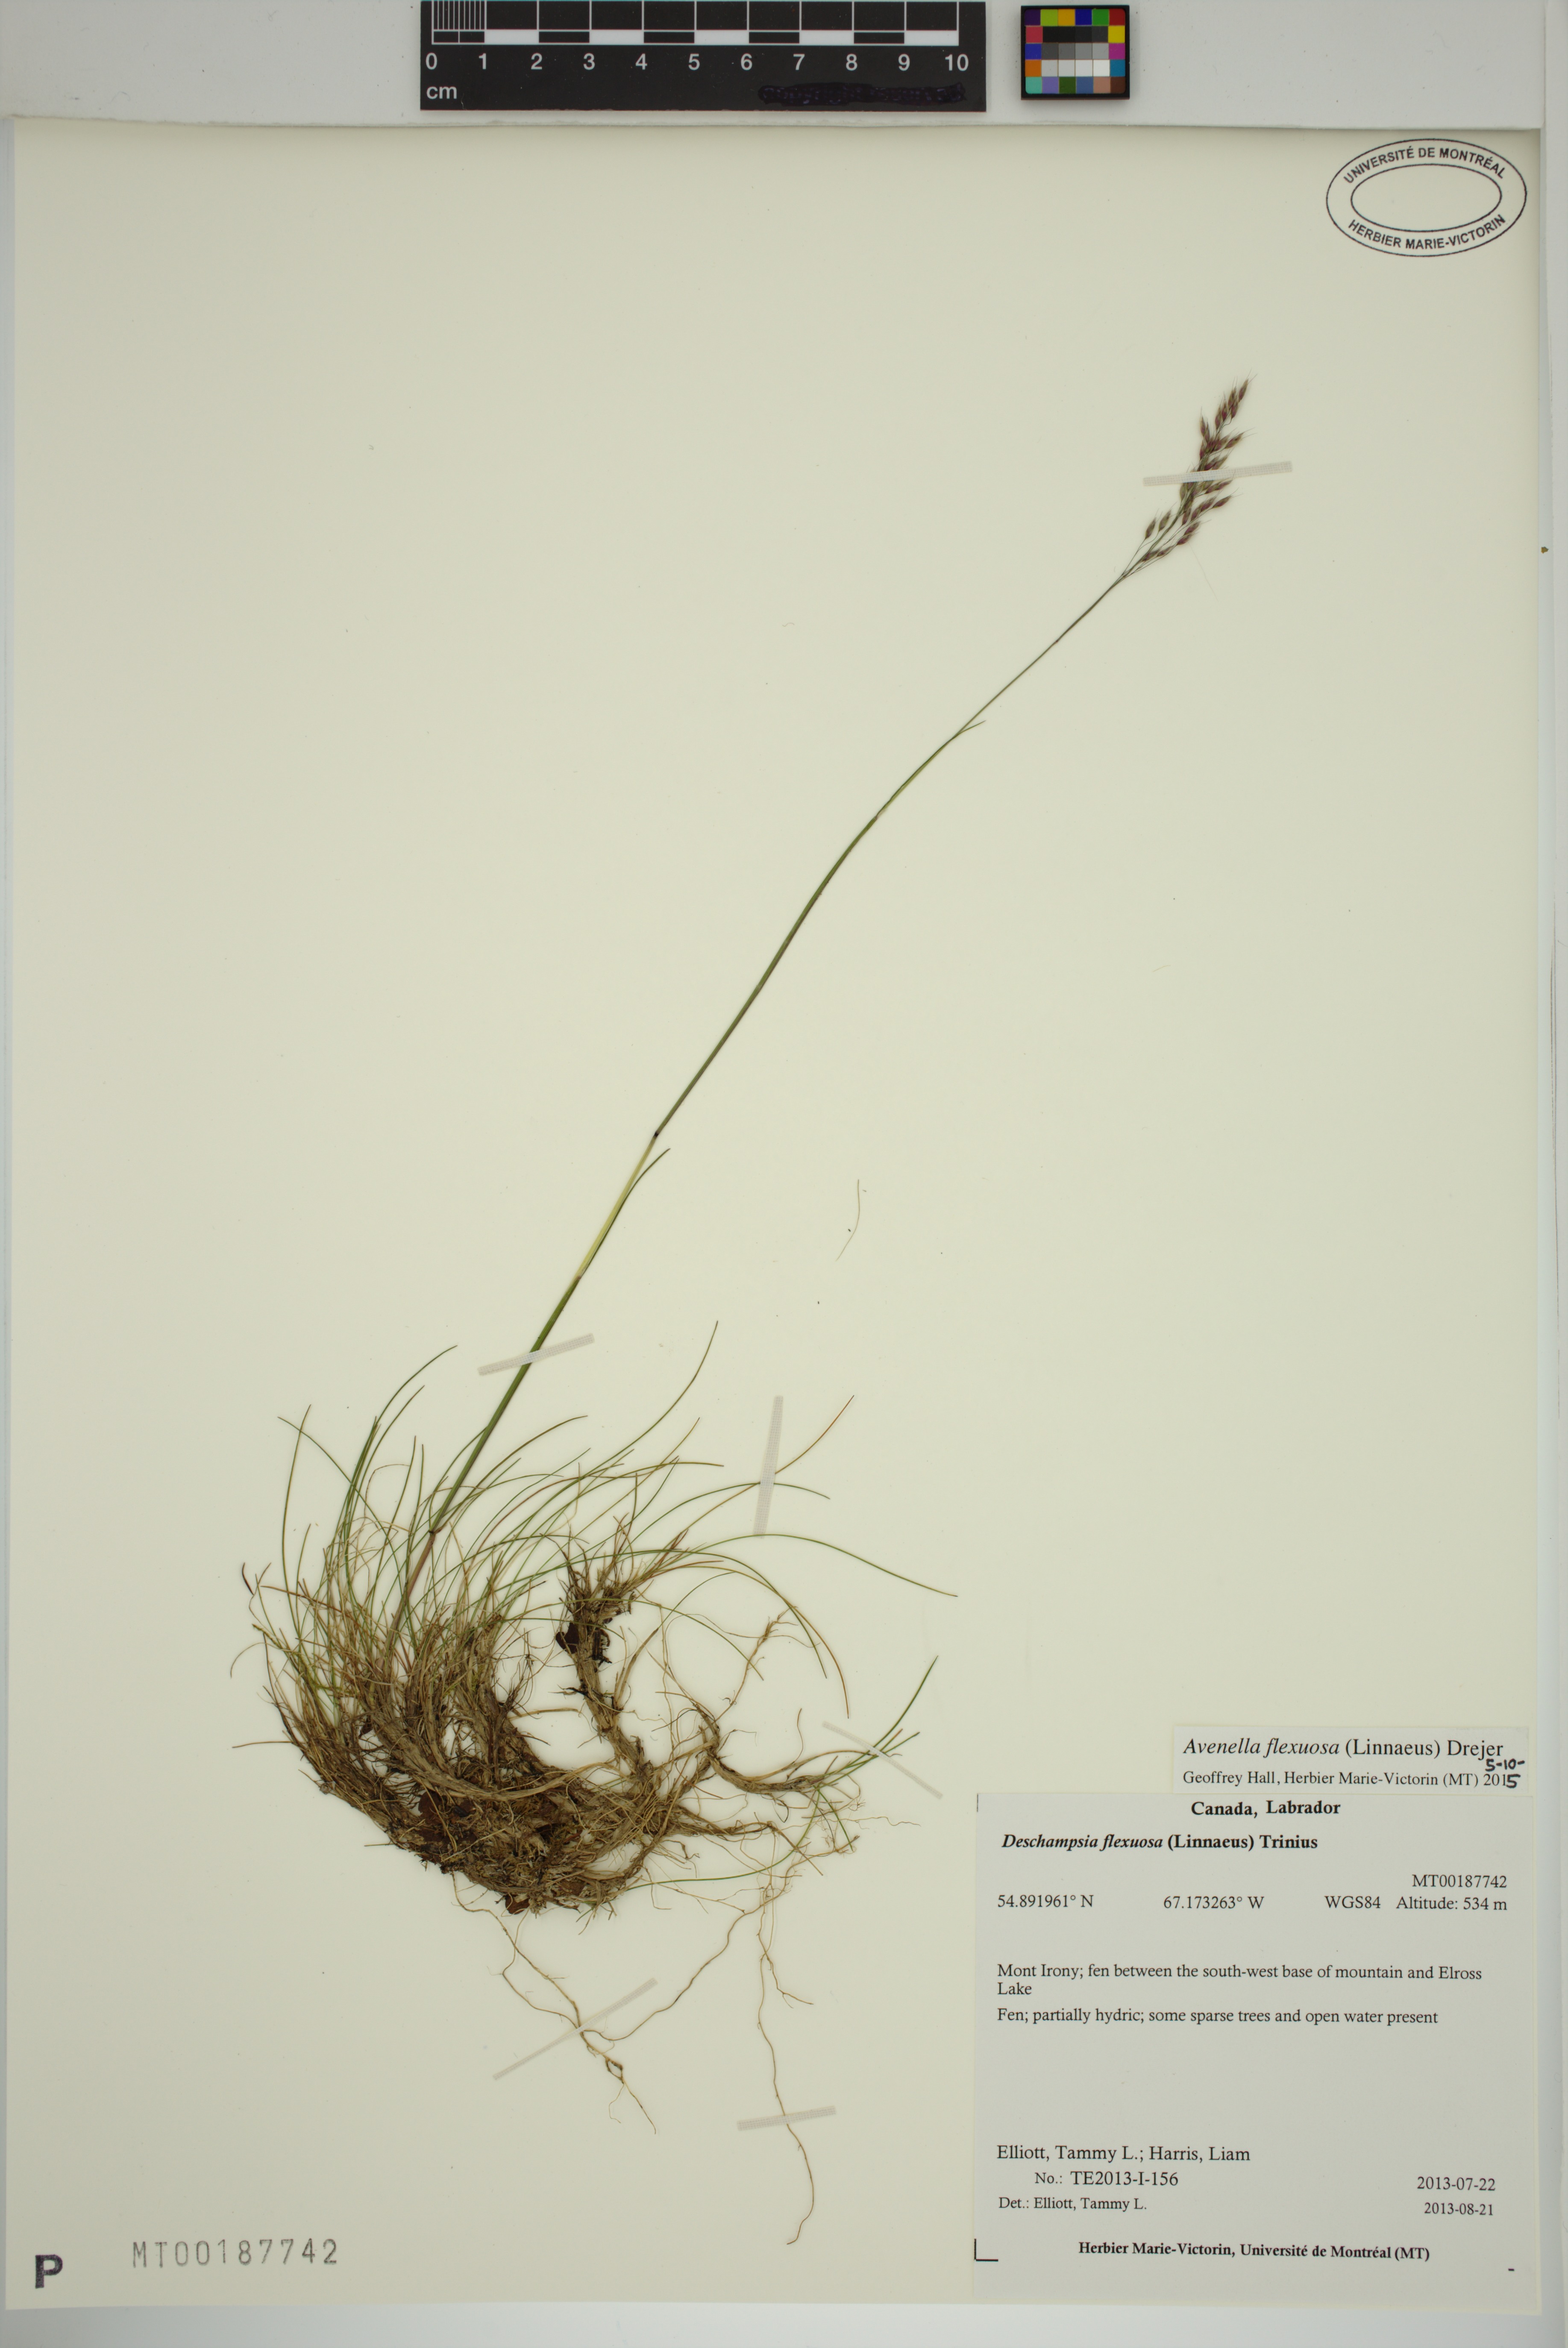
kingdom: Plantae
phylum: Tracheophyta
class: Liliopsida
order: Poales
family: Poaceae
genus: Avenella
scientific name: Avenella flexuosa
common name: Wavy hairgrass
